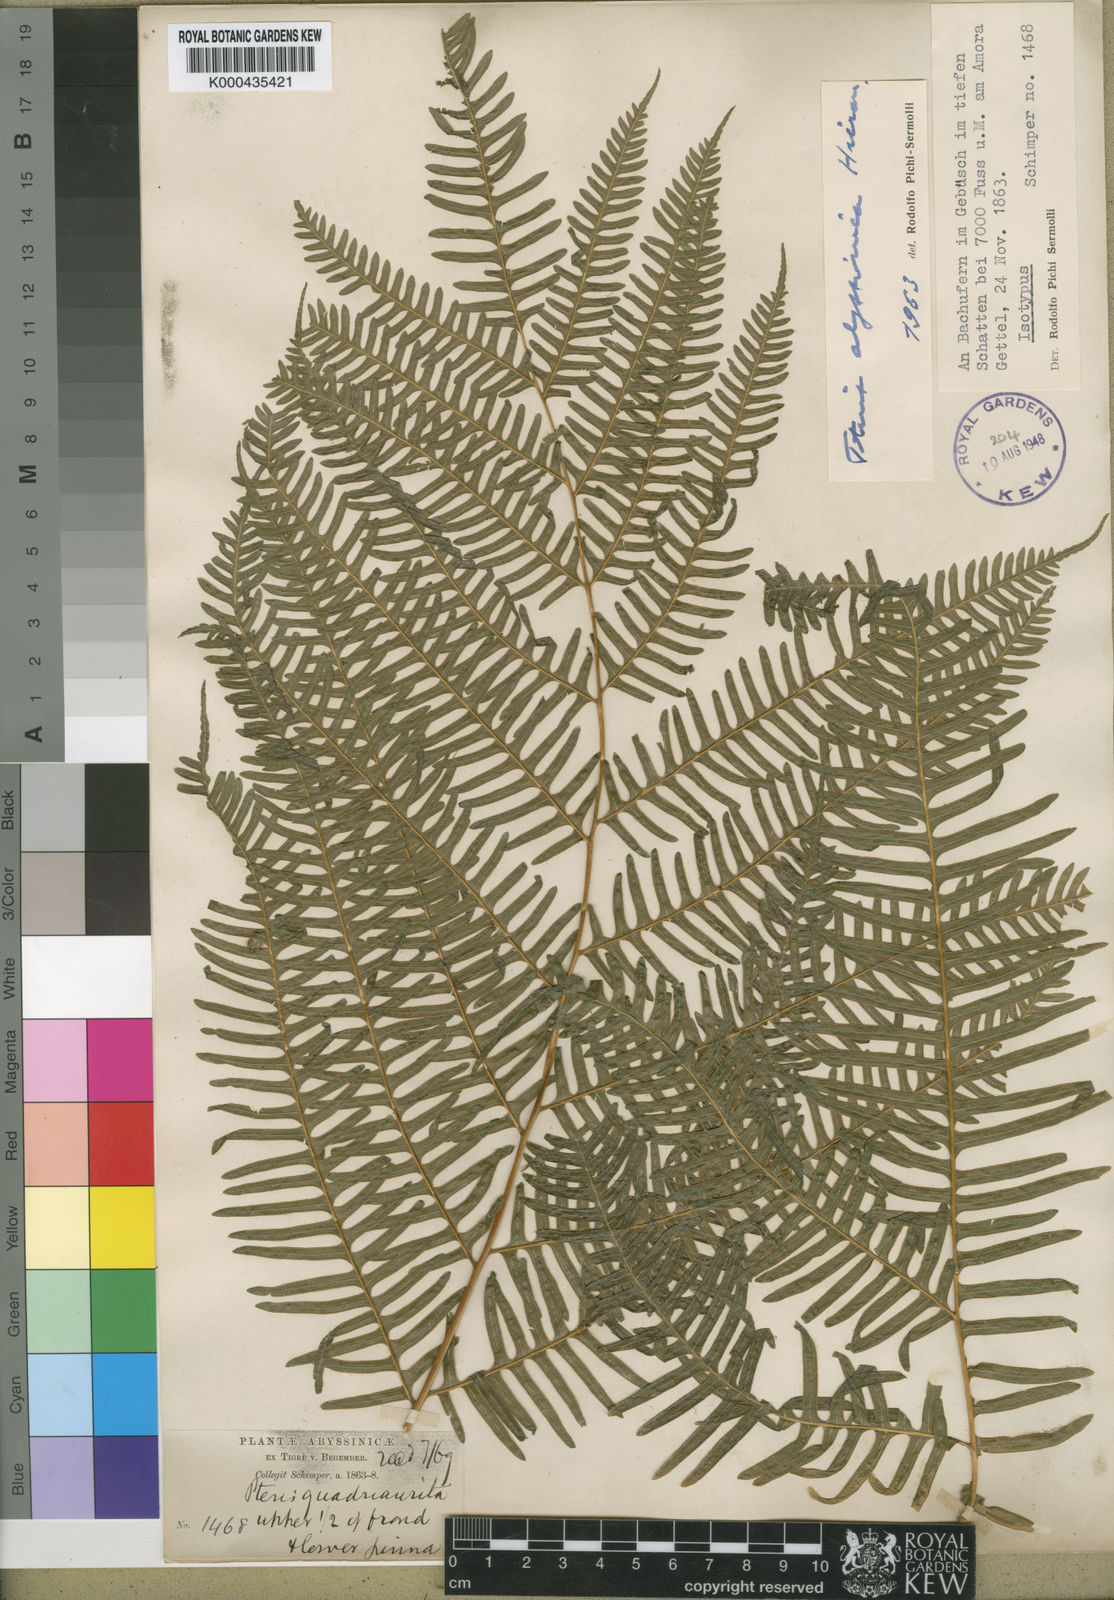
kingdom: Plantae
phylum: Tracheophyta
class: Polypodiopsida
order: Polypodiales
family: Pteridaceae
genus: Pteris
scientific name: Pteris catoptera
